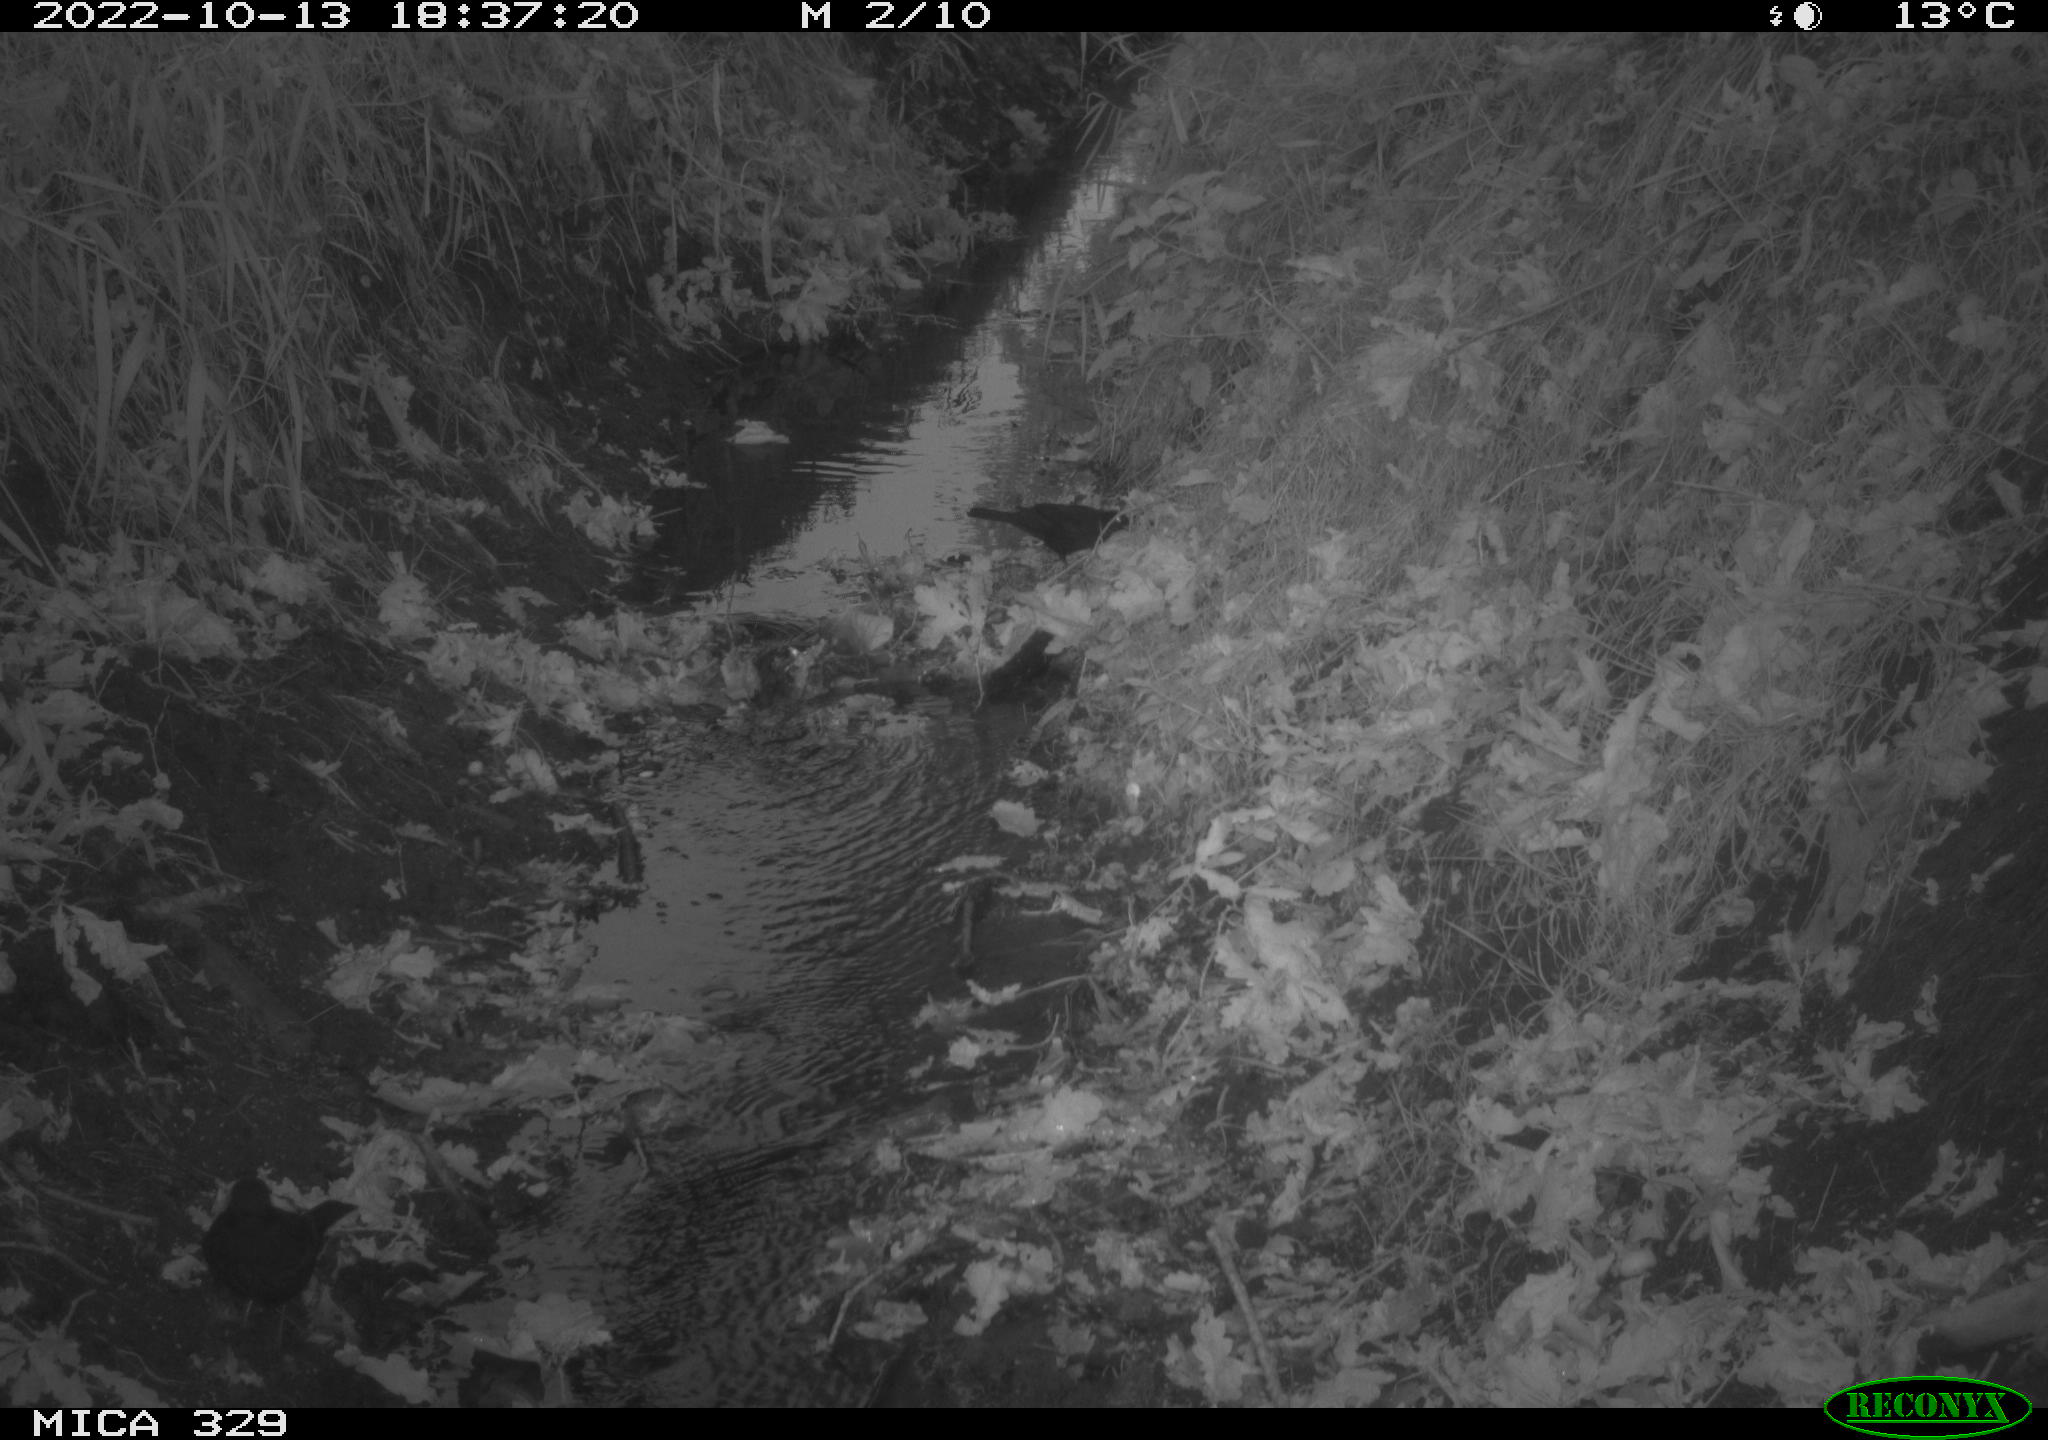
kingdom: Animalia
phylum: Chordata
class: Aves
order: Passeriformes
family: Turdidae
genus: Turdus
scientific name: Turdus
